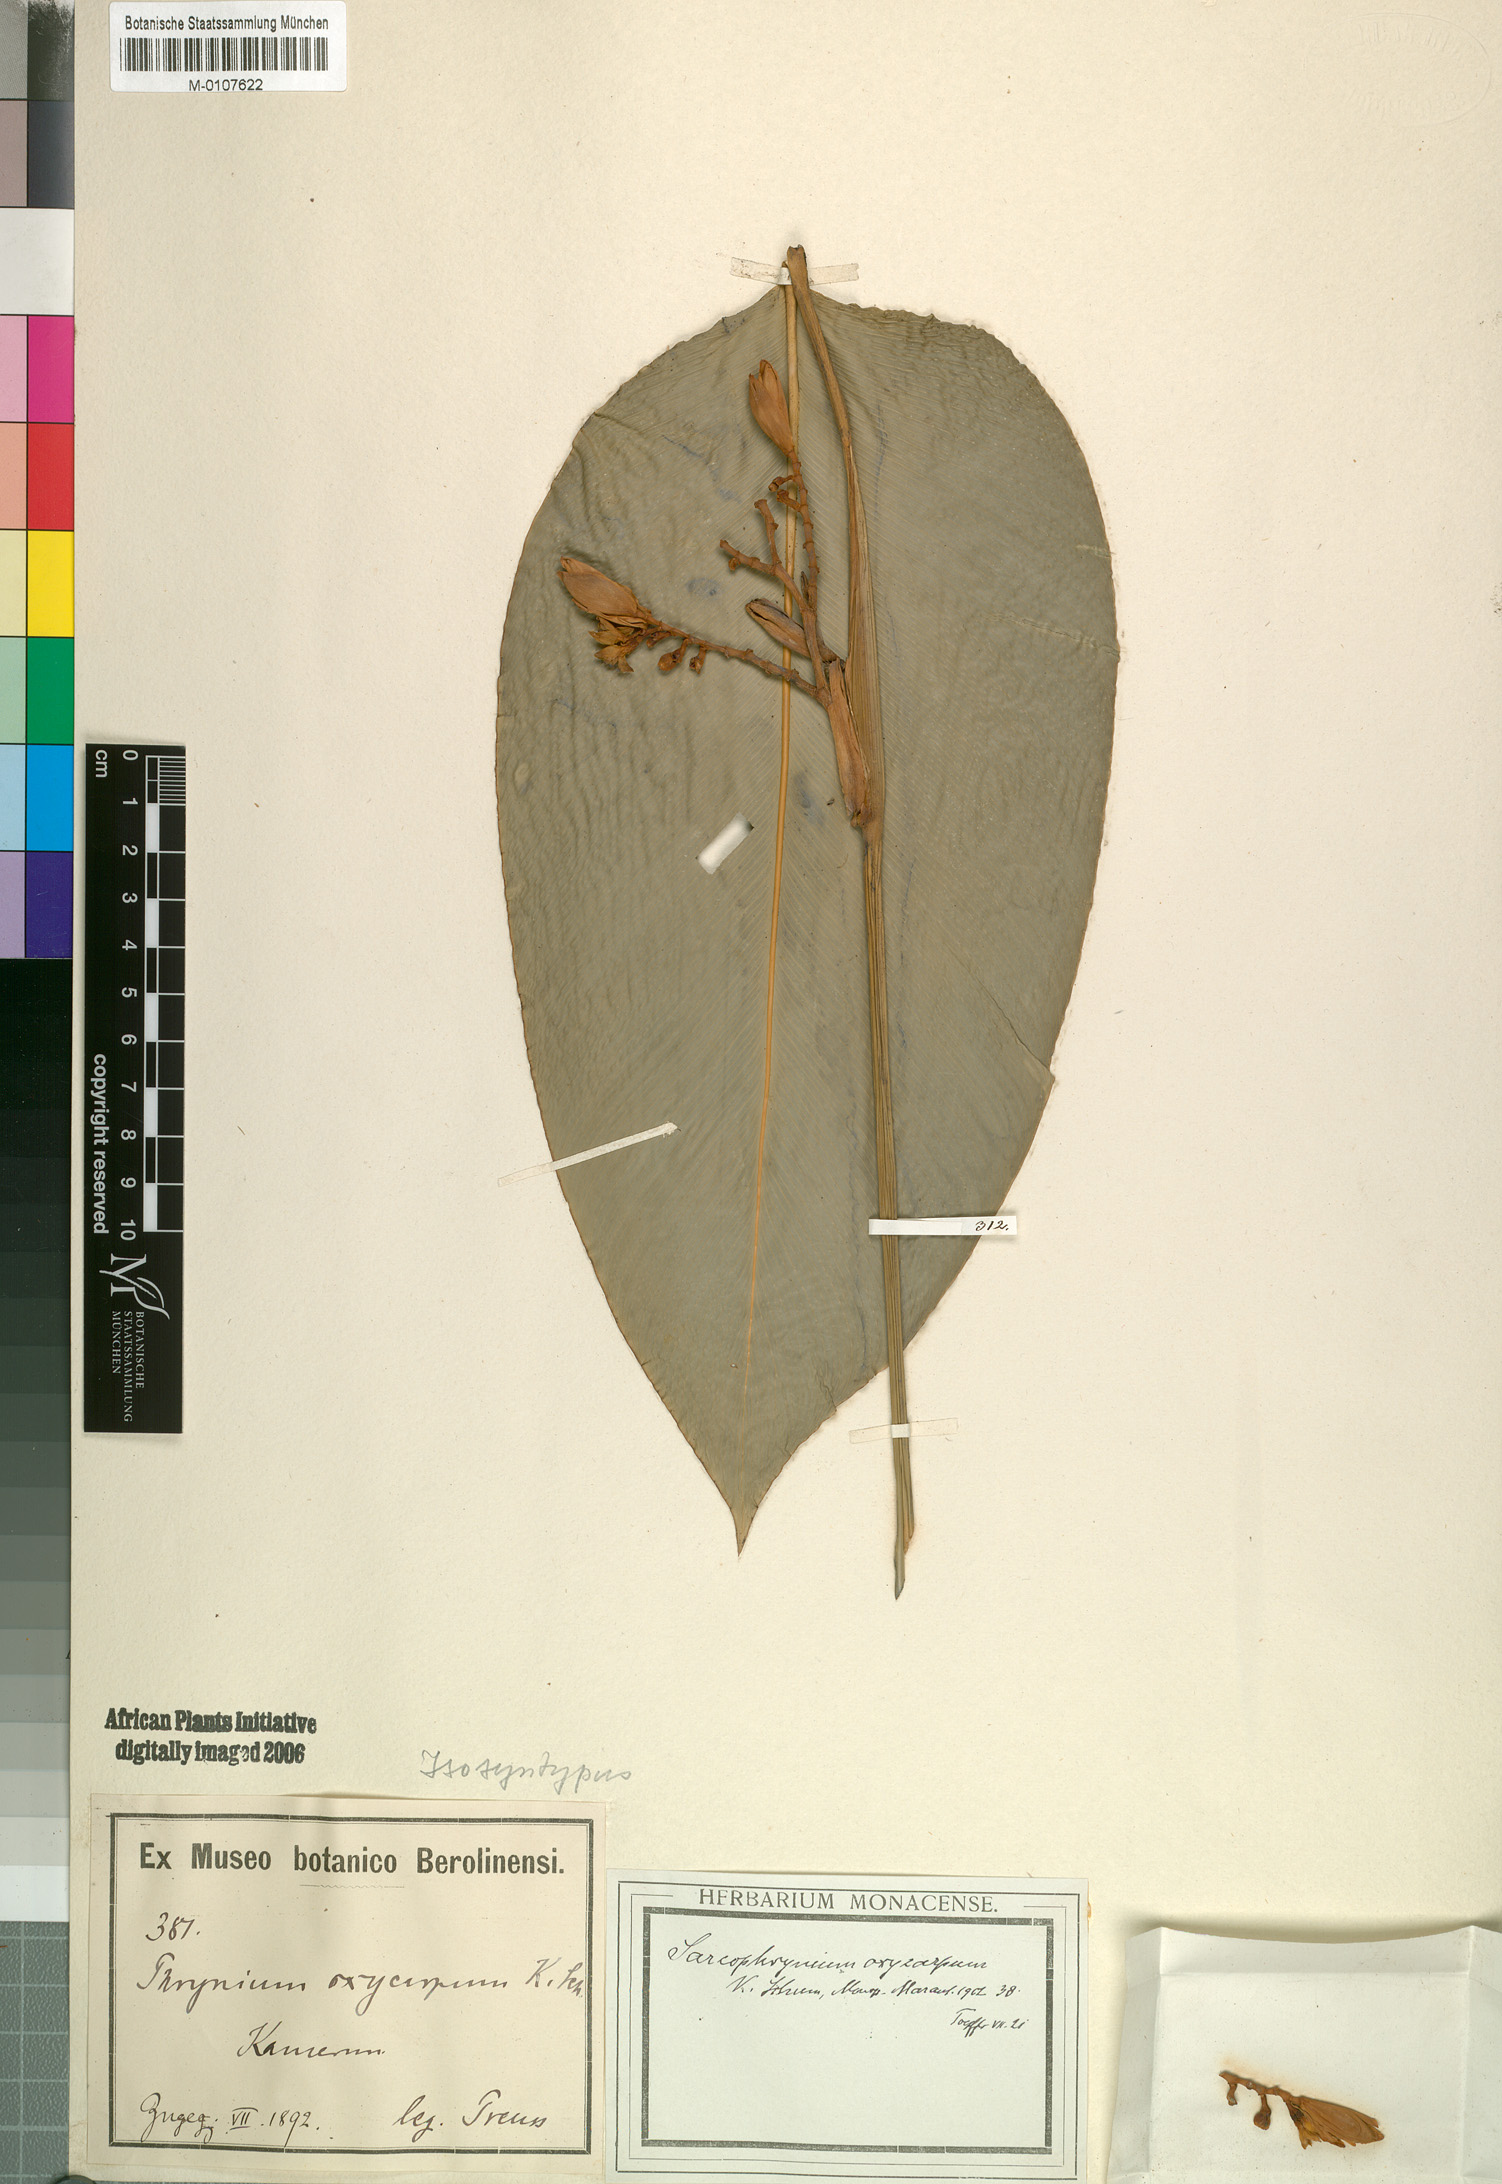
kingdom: Plantae
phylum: Tracheophyta
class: Liliopsida
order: Zingiberales
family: Marantaceae
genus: Megaphrynium
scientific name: Megaphrynium macrostachyum
